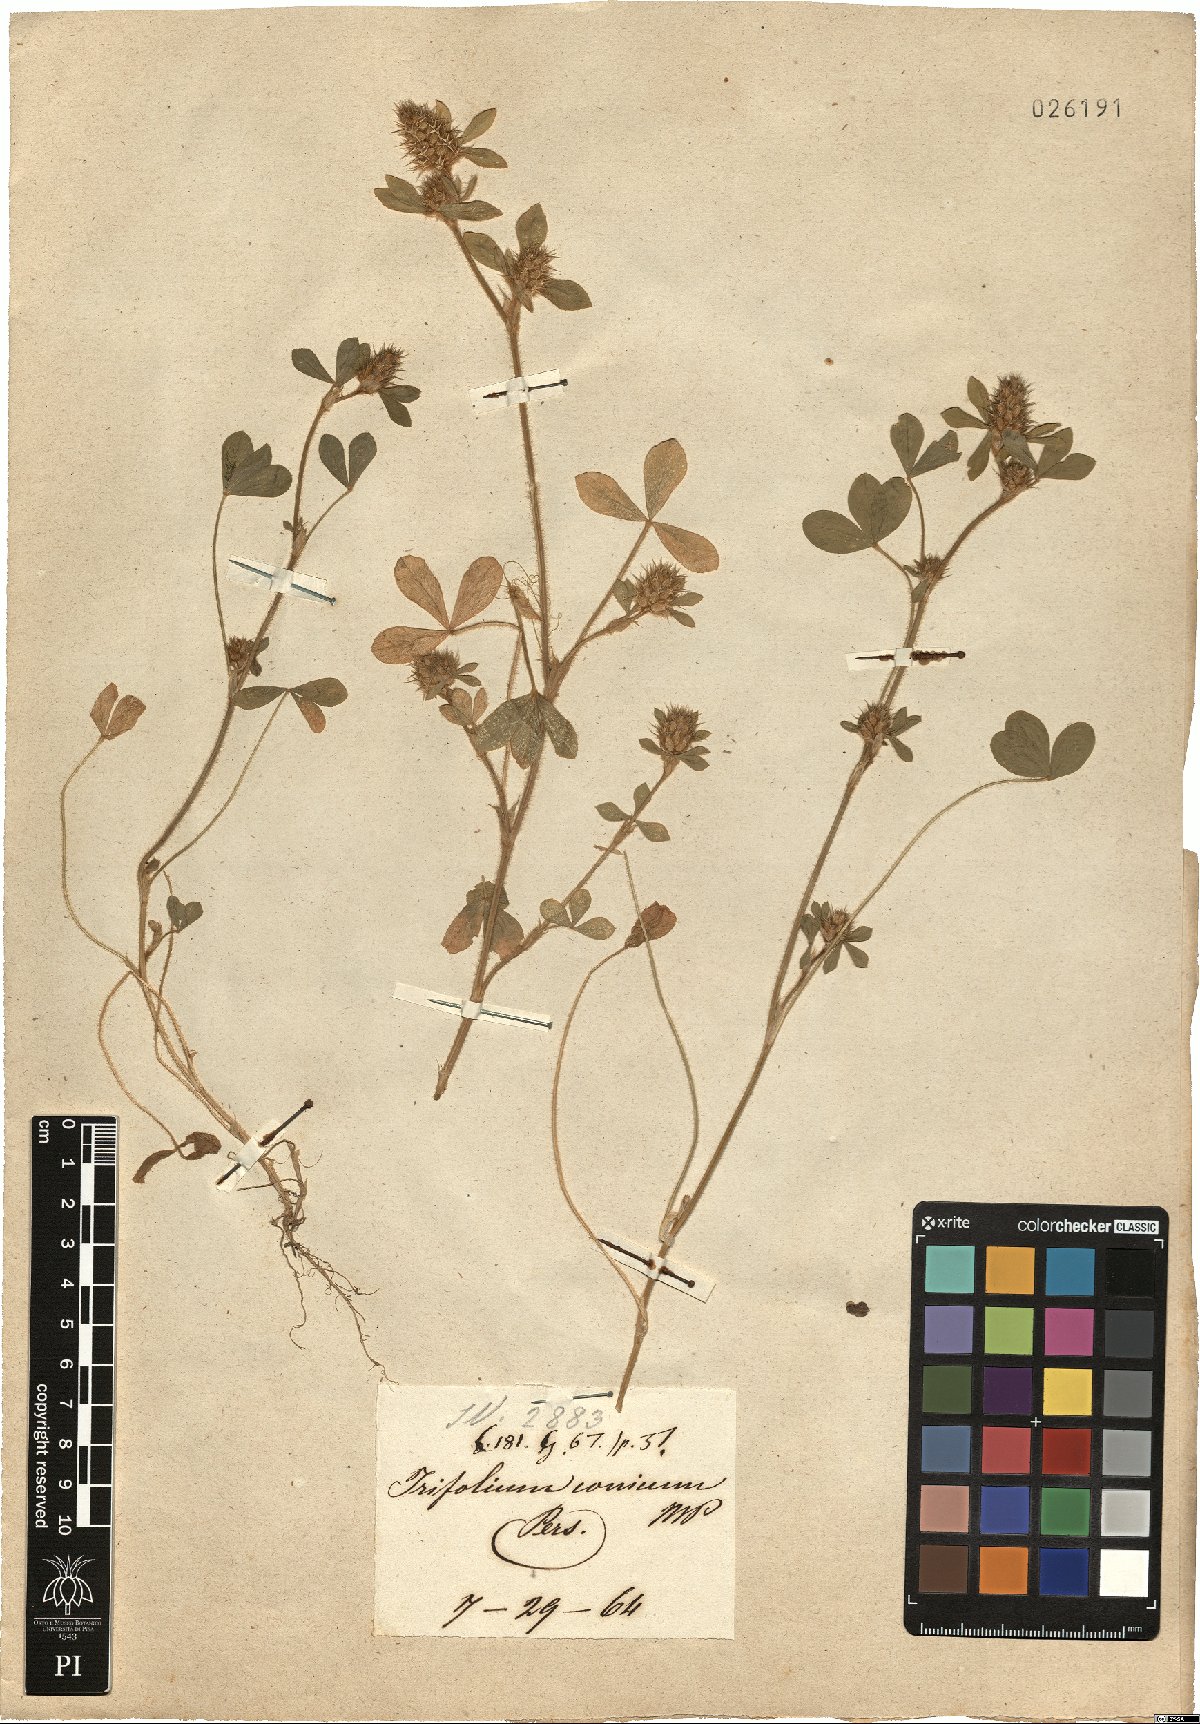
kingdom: Plantae
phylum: Tracheophyta
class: Magnoliopsida
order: Fabales
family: Fabaceae
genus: Trifolium
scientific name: Trifolium striatum
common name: Knotted clover
